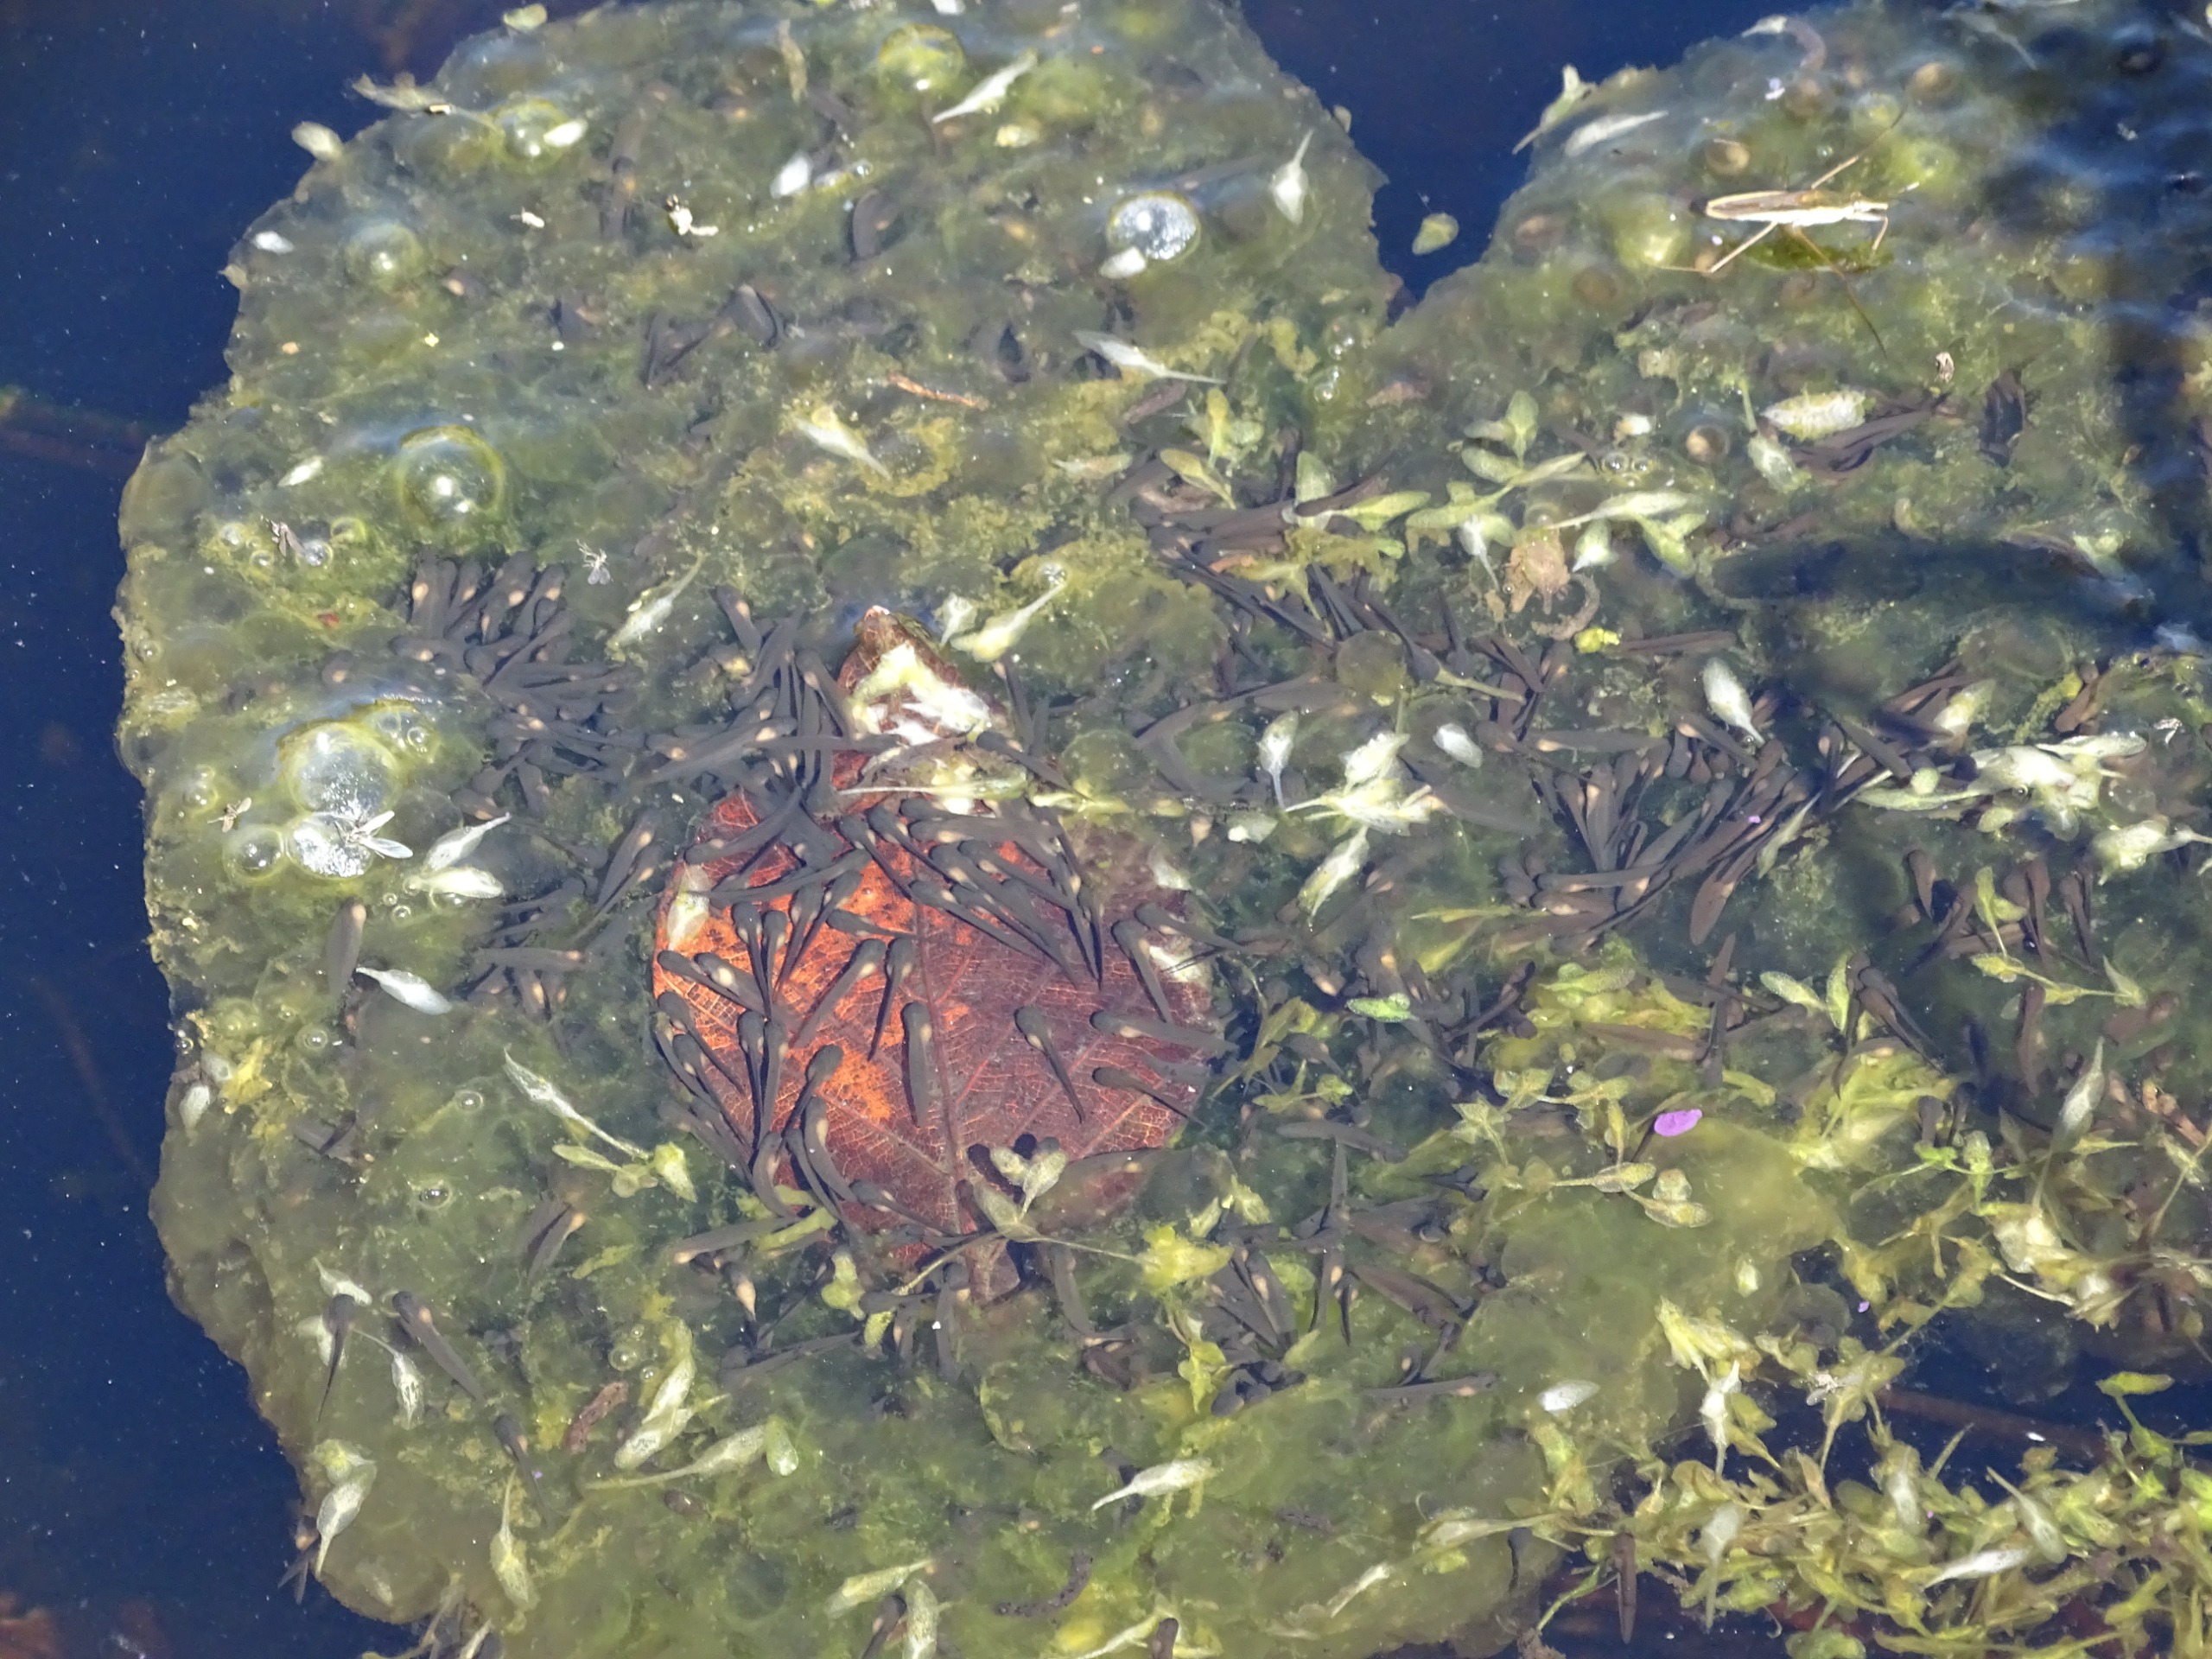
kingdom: Animalia
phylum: Chordata
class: Amphibia
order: Anura
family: Ranidae
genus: Rana
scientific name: Rana dalmatina
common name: Springfrø
